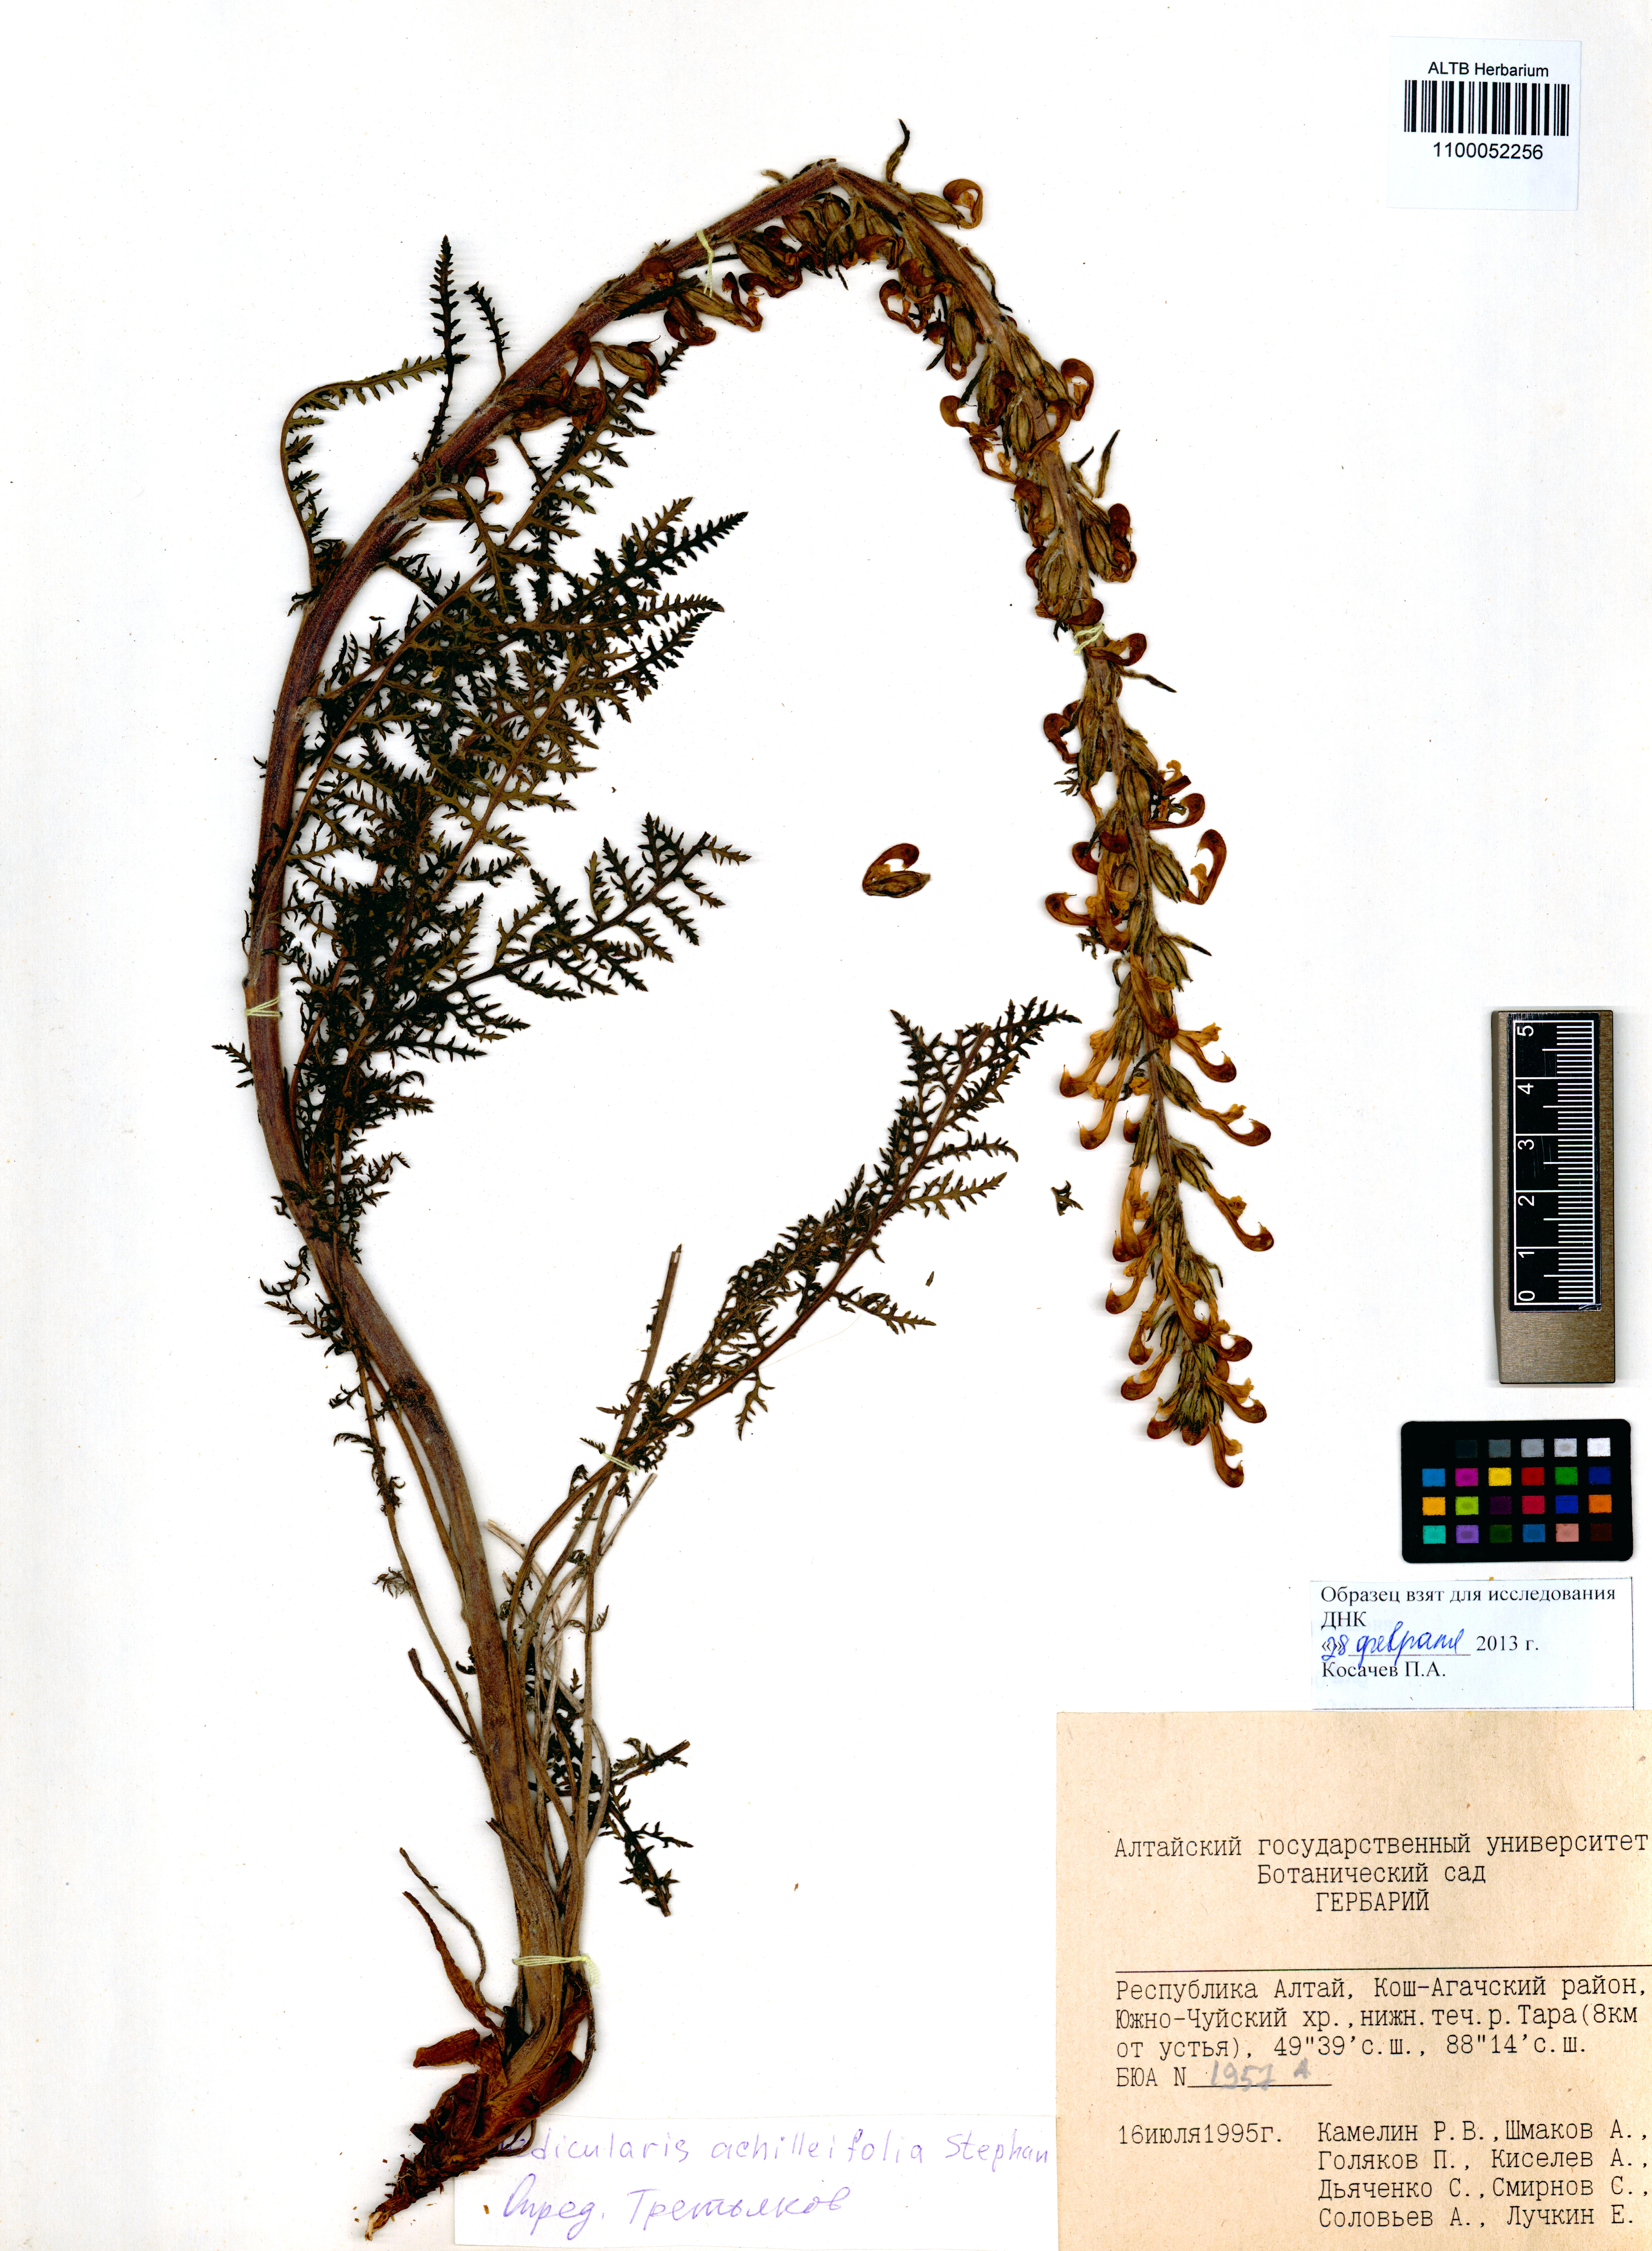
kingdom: Plantae
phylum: Tracheophyta
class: Magnoliopsida
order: Lamiales
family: Orobanchaceae
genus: Pedicularis
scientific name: Pedicularis achilleifolia
